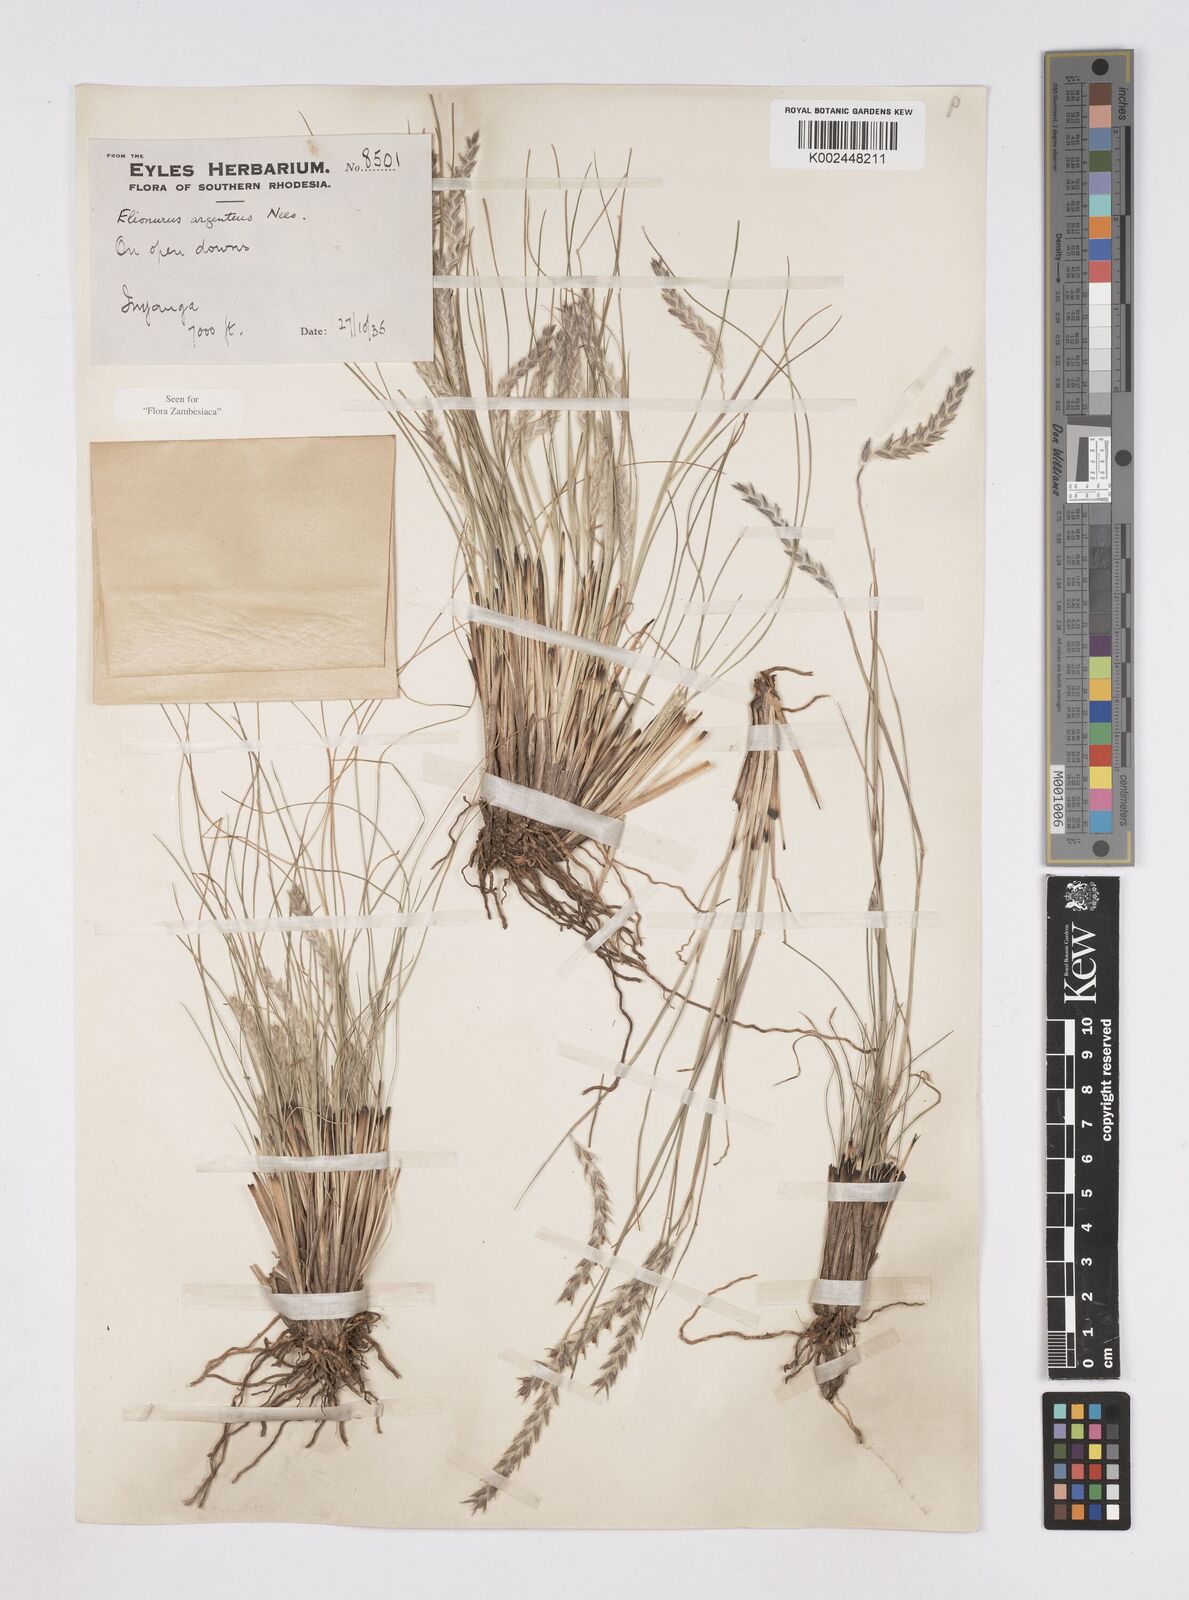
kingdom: Plantae
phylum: Tracheophyta
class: Liliopsida
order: Poales
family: Poaceae
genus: Elionurus
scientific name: Elionurus muticus
